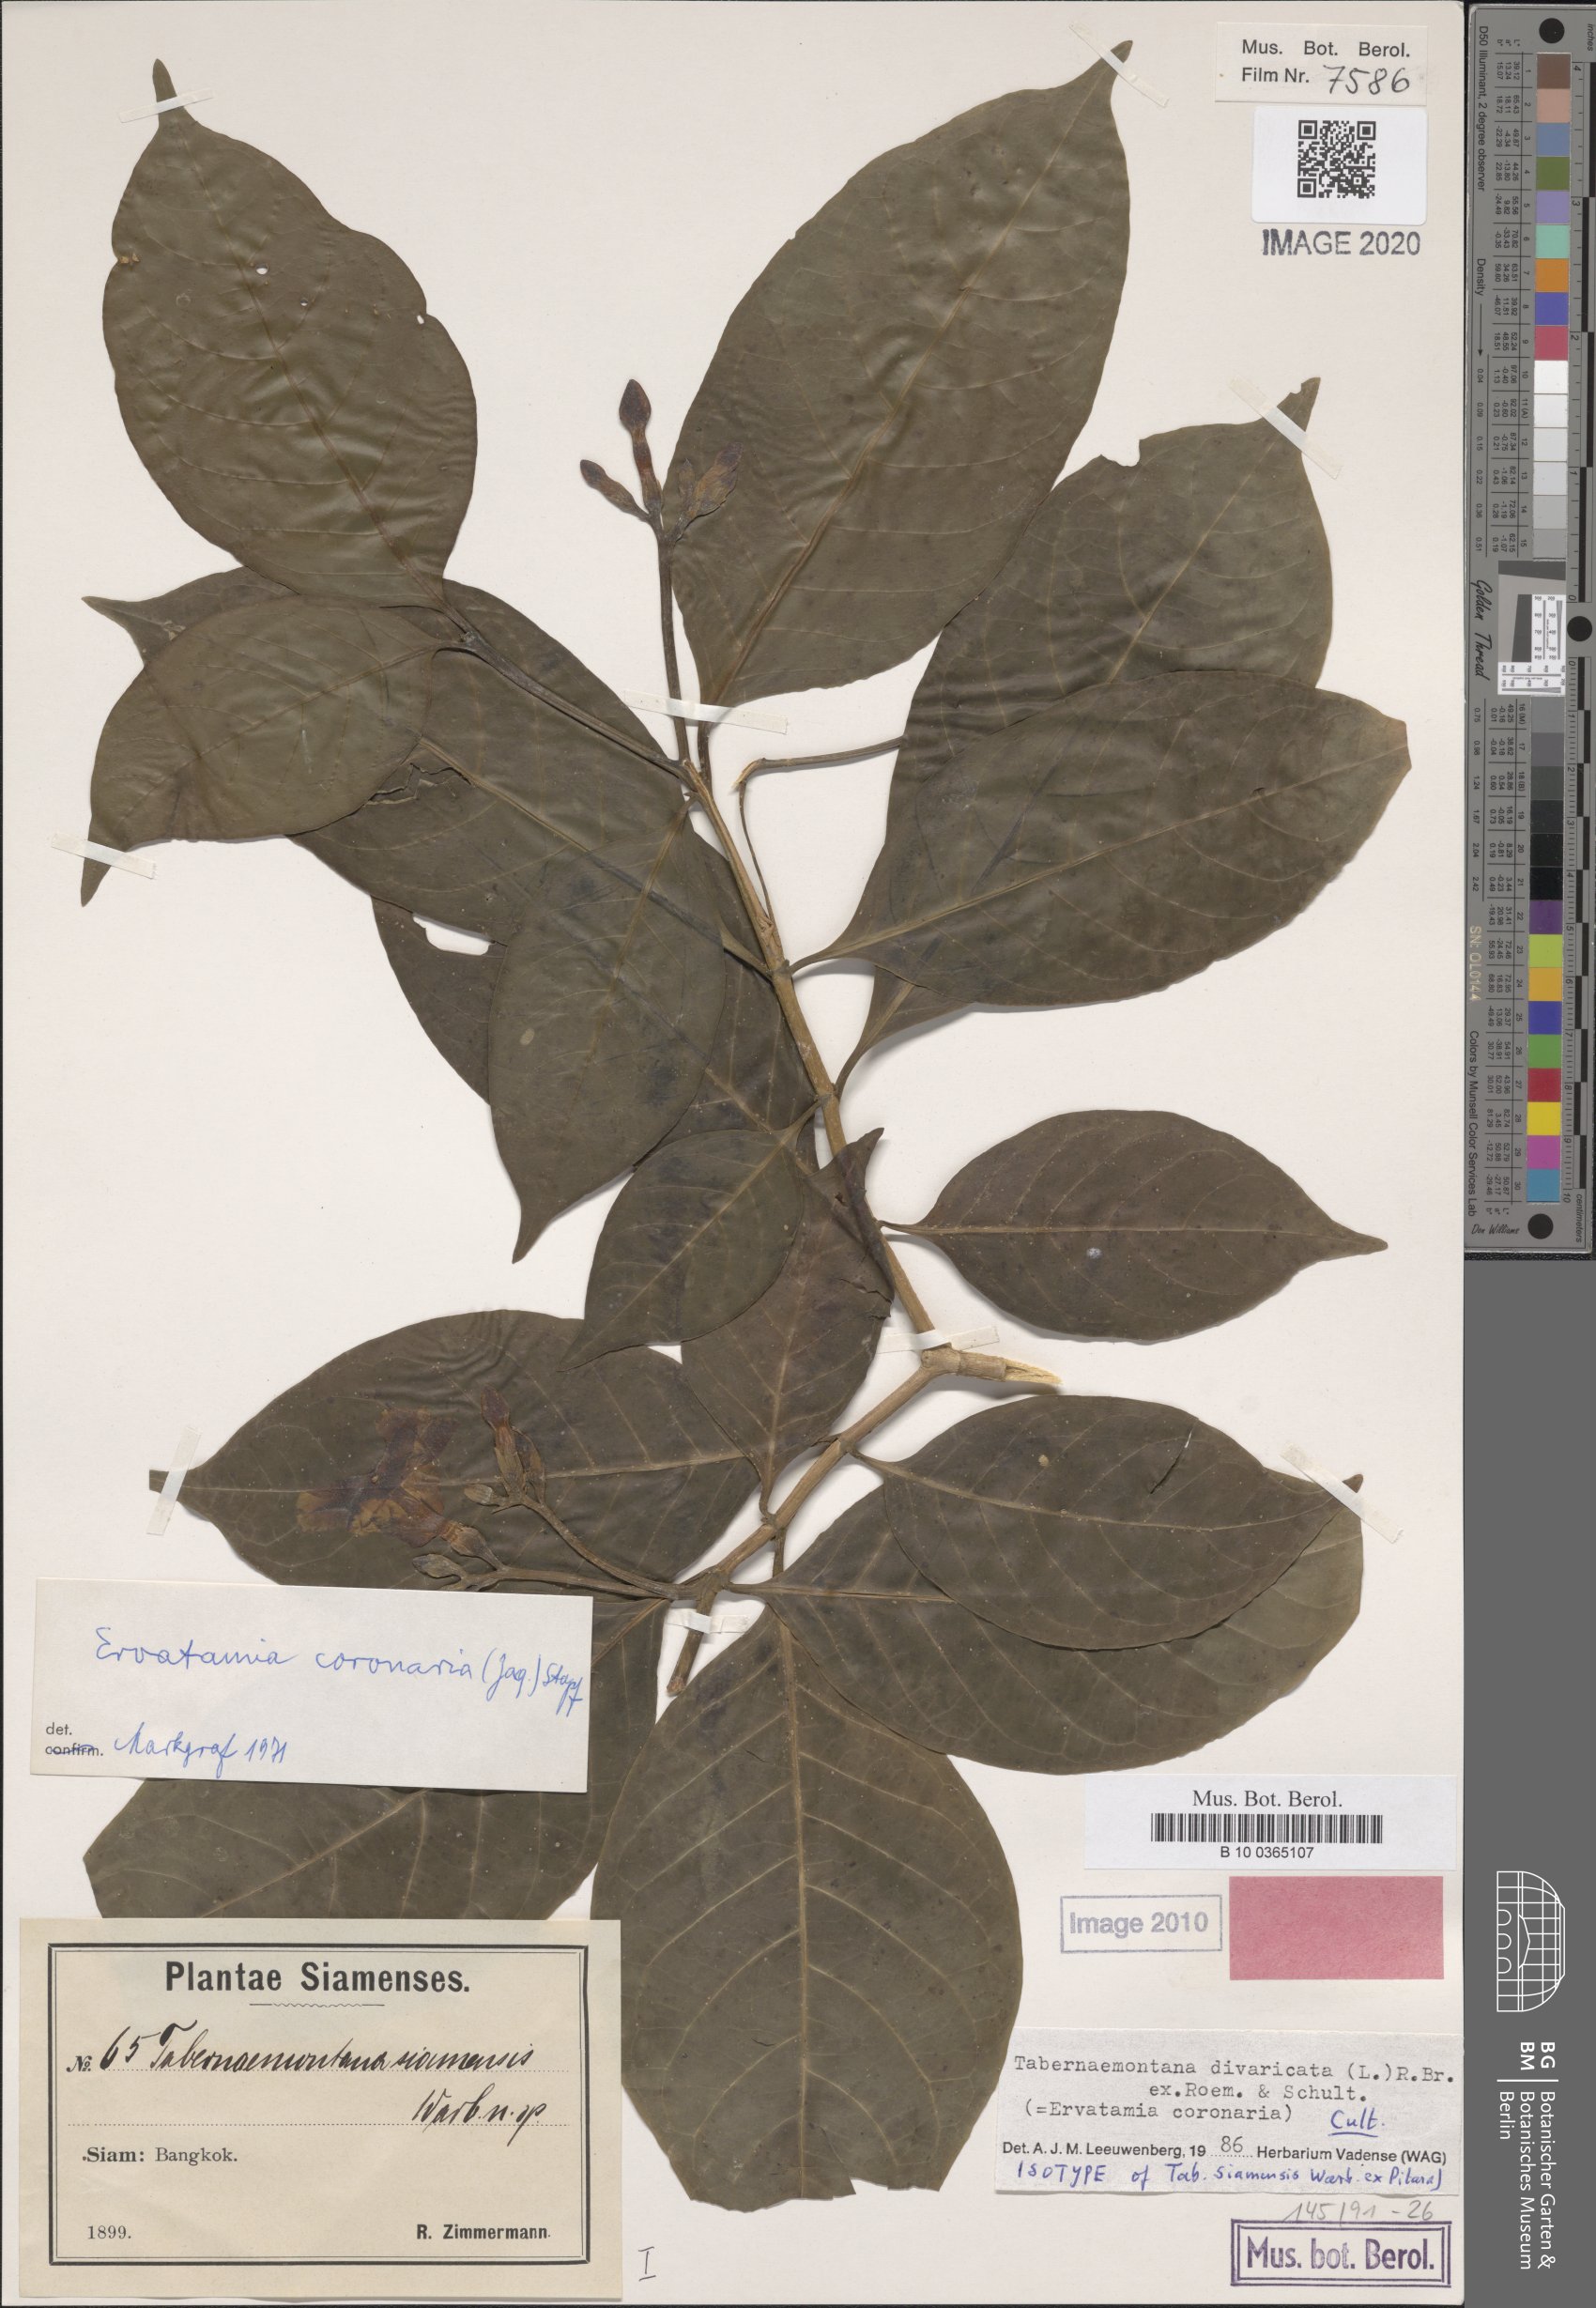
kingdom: Plantae
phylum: Tracheophyta
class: Magnoliopsida
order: Gentianales
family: Apocynaceae
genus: Tabernaemontana
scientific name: Tabernaemontana divaricata
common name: Pinwheelflower
